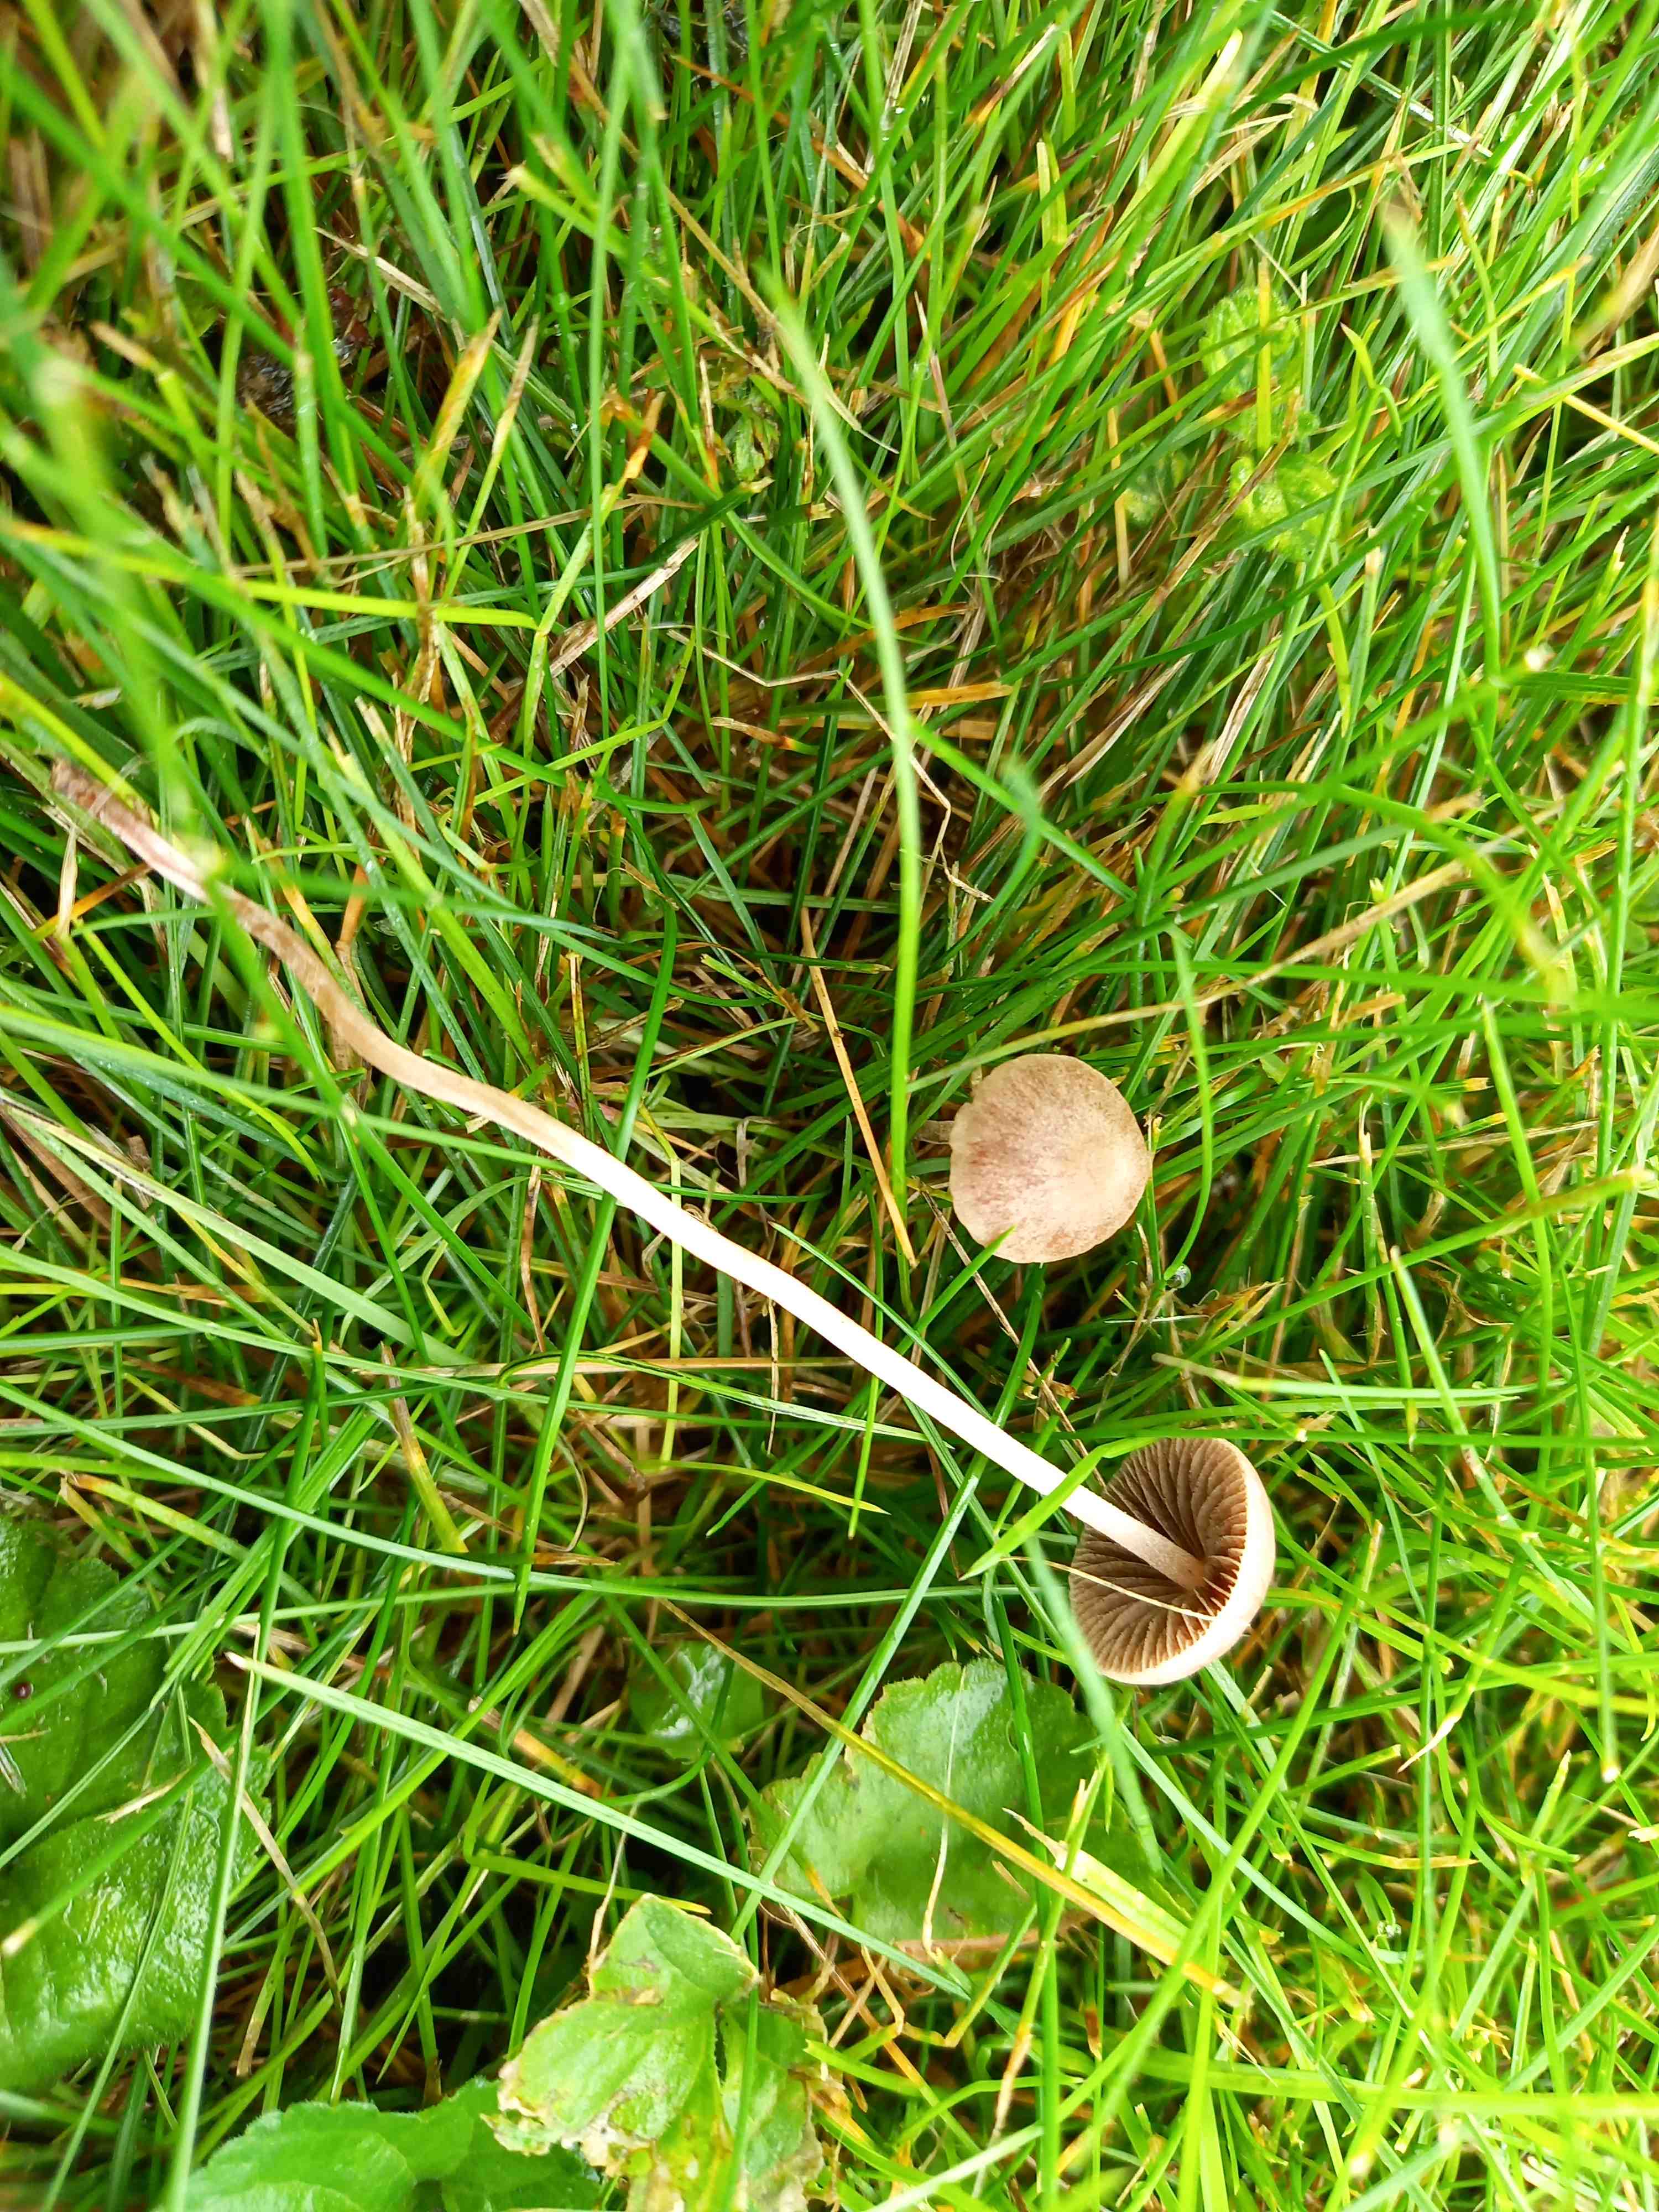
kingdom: Fungi
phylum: Basidiomycota
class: Agaricomycetes
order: Agaricales
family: Bolbitiaceae
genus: Panaeolina
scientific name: Panaeolina foenisecii
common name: høslætsvamp
